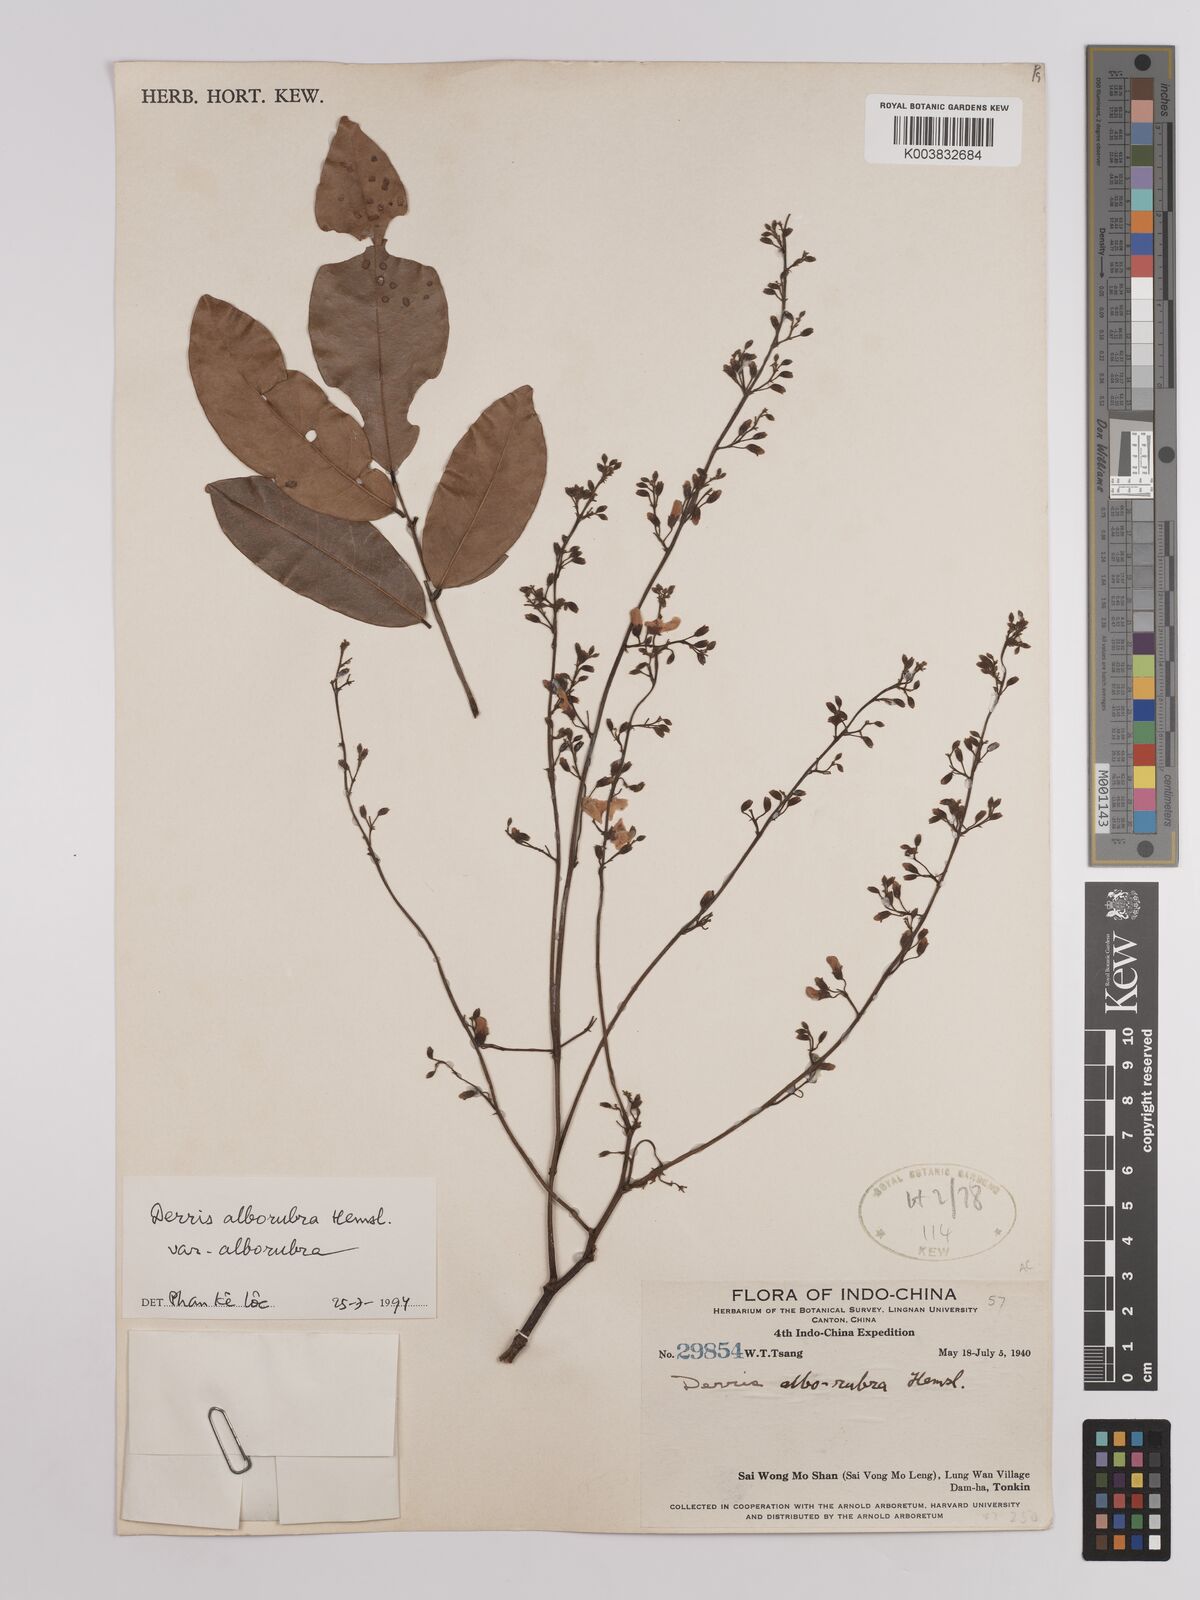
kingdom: Plantae
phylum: Tracheophyta
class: Magnoliopsida
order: Fabales
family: Fabaceae
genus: Derris
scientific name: Derris alborubra
